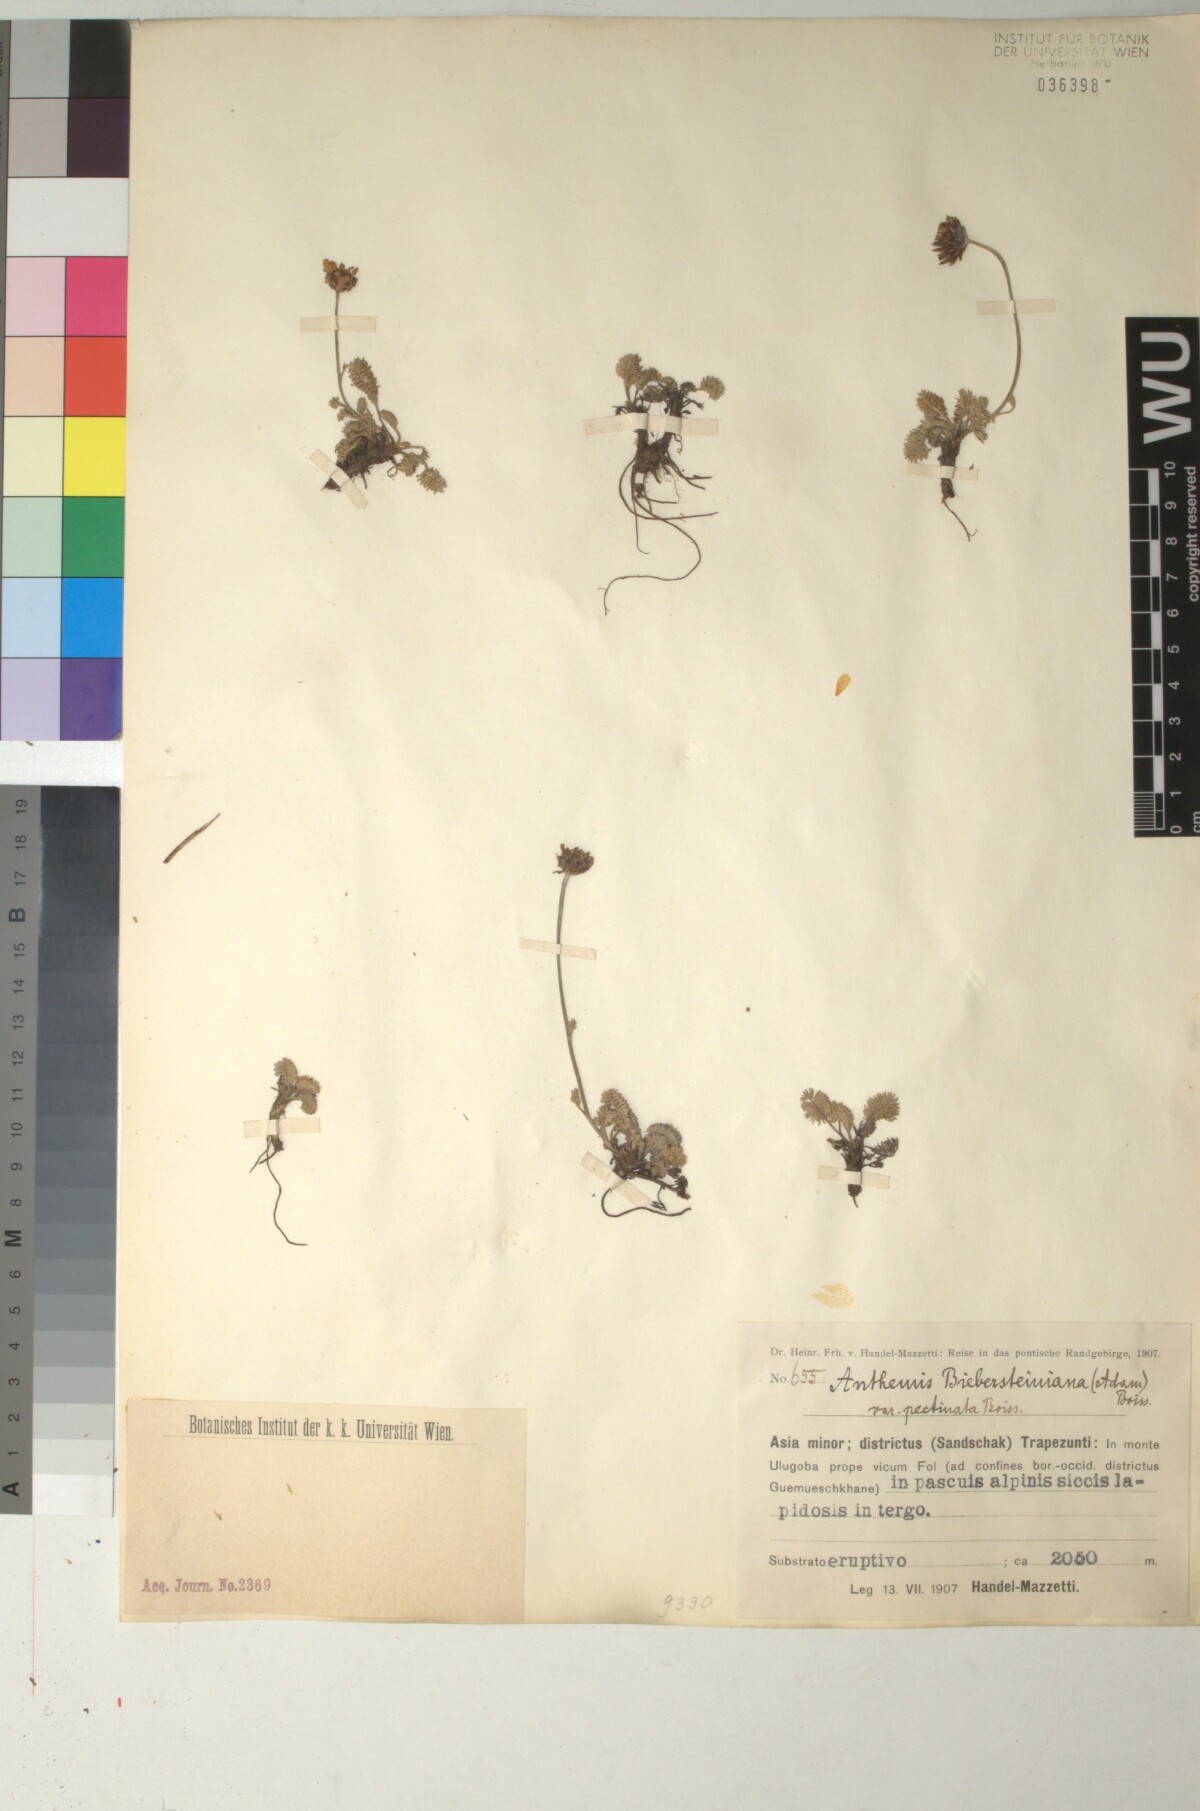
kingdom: Plantae
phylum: Tracheophyta
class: Magnoliopsida
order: Asterales
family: Asteraceae
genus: Archanthemis
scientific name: Archanthemis marschalliana
